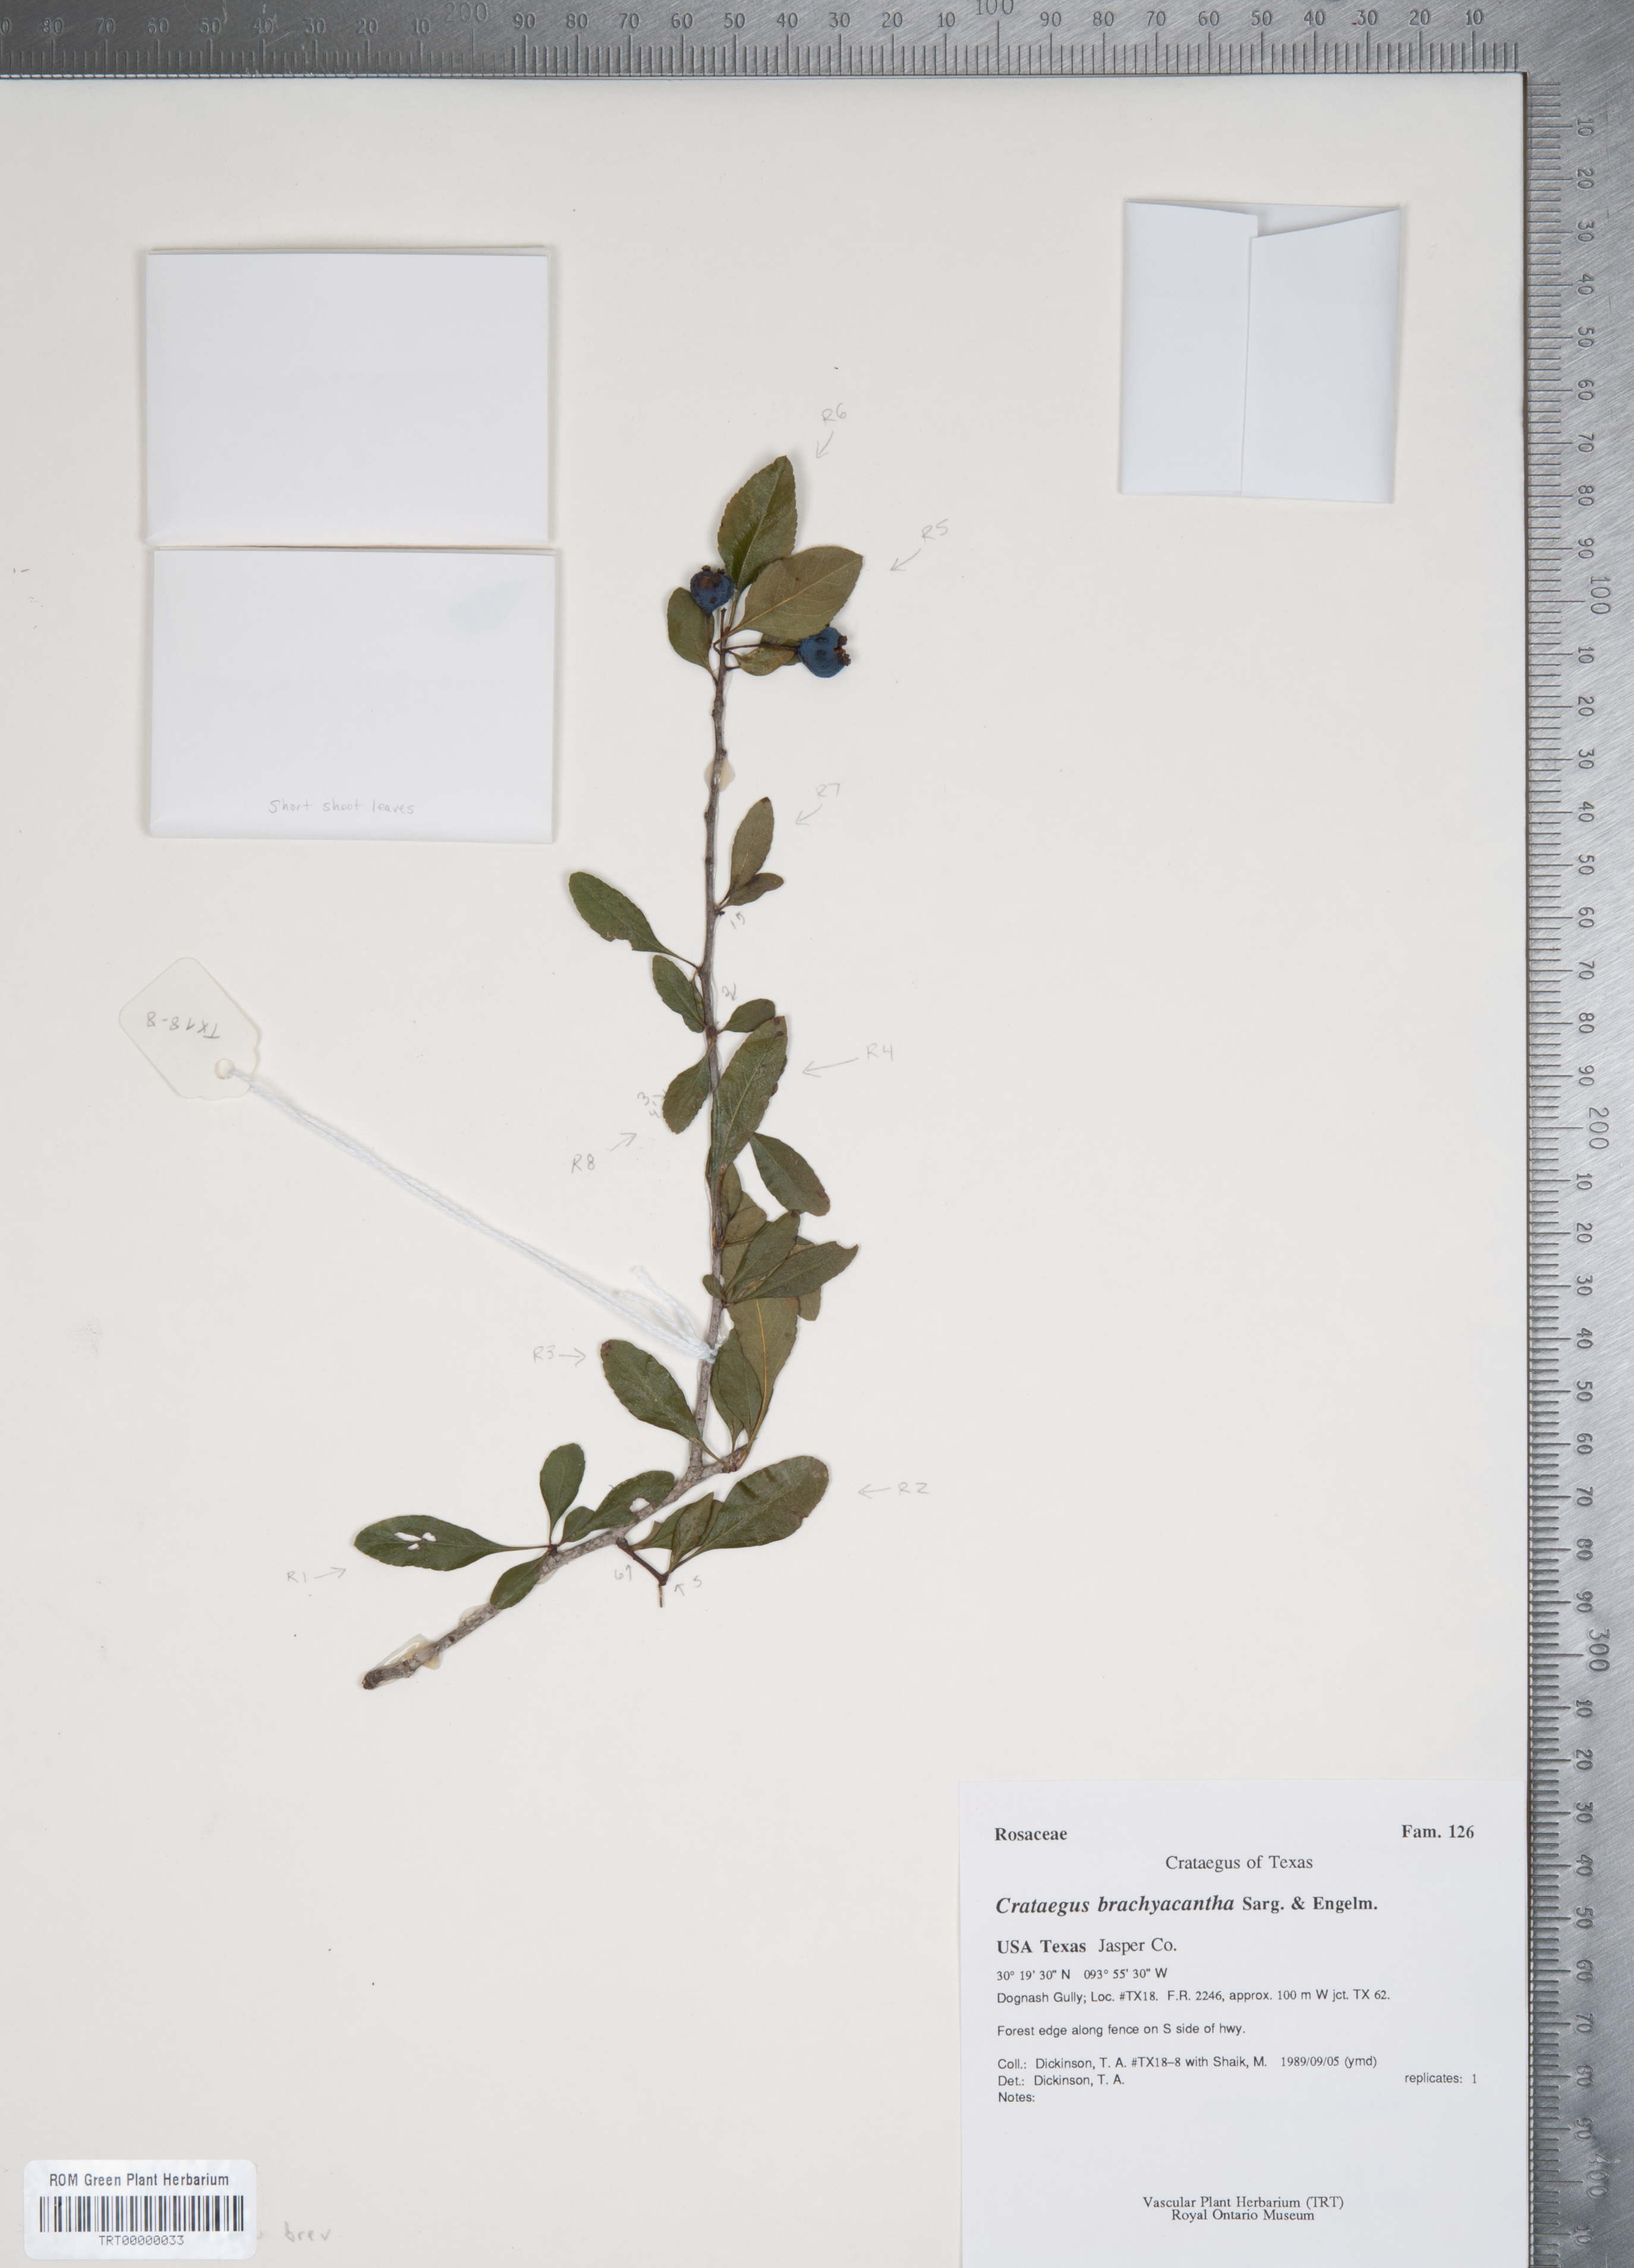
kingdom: Plantae
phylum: Tracheophyta
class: Magnoliopsida
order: Rosales
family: Rosaceae
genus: Crataegus
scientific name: Crataegus brachyacantha
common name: Blueberry-hawthorn
